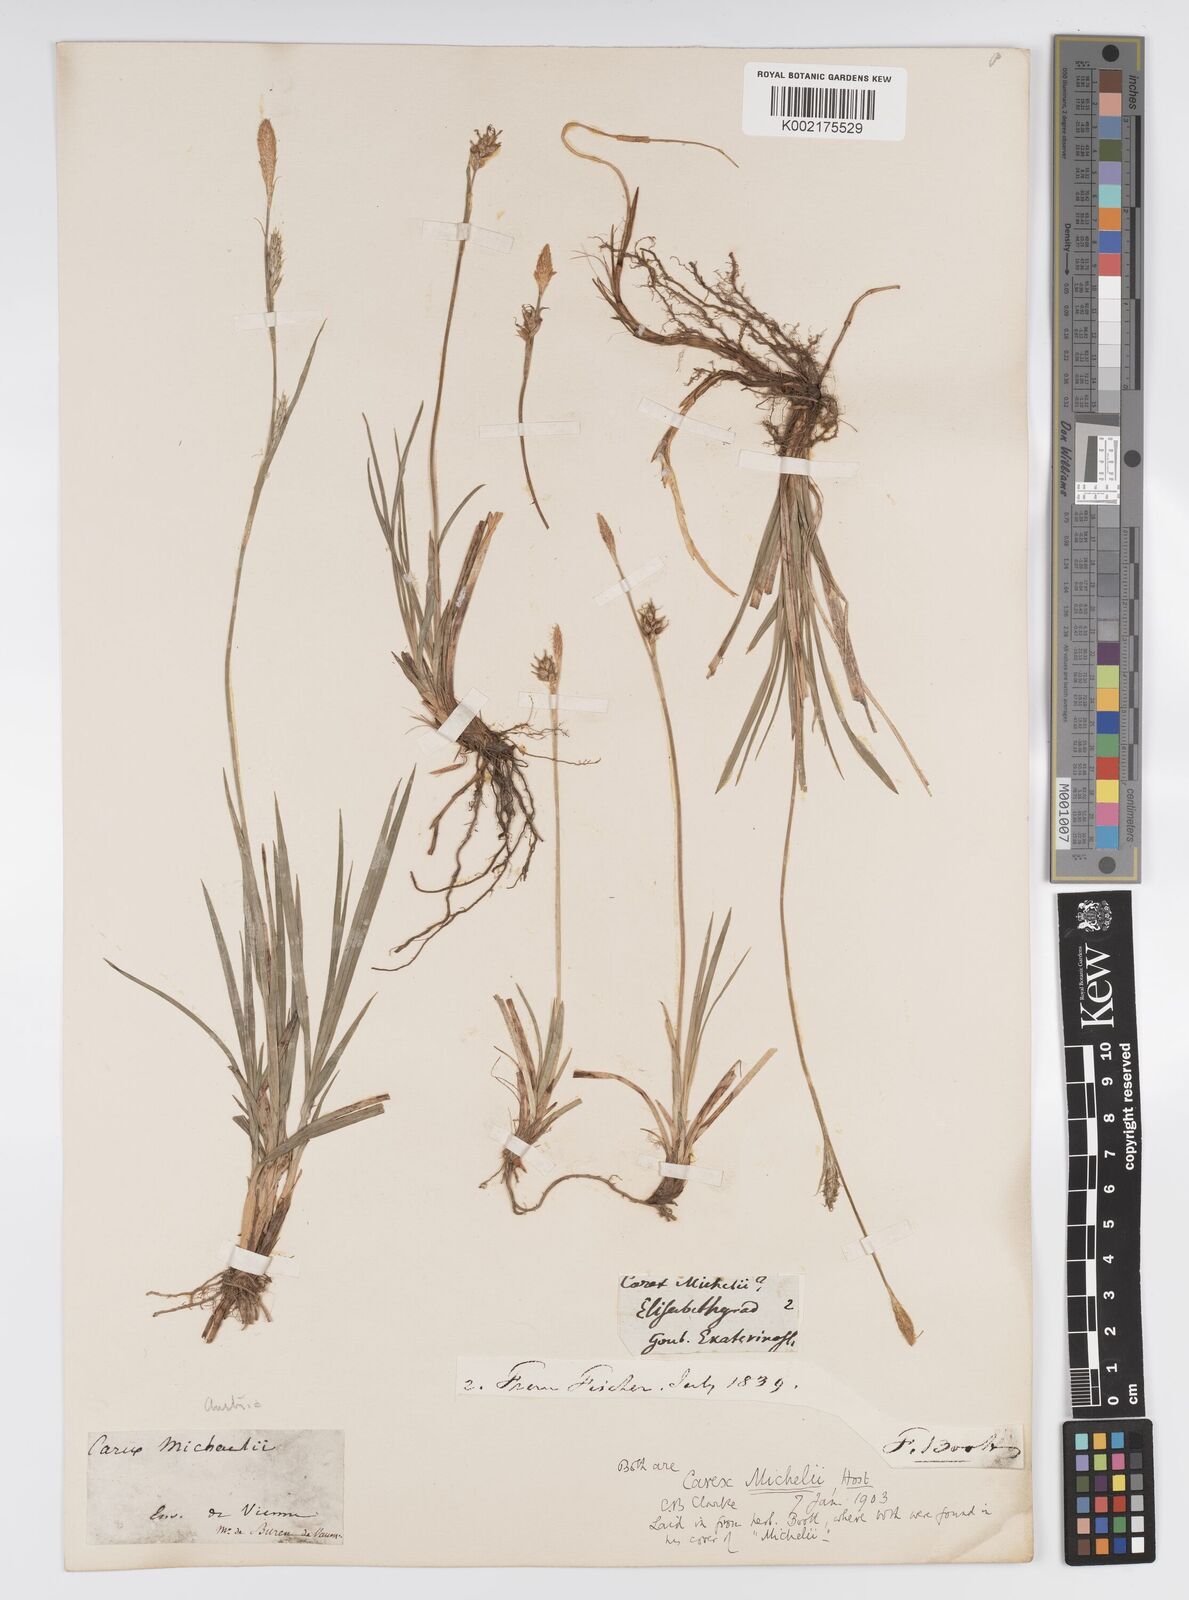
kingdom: Plantae
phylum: Tracheophyta
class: Liliopsida
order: Poales
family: Cyperaceae
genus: Carex
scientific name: Carex michelii
